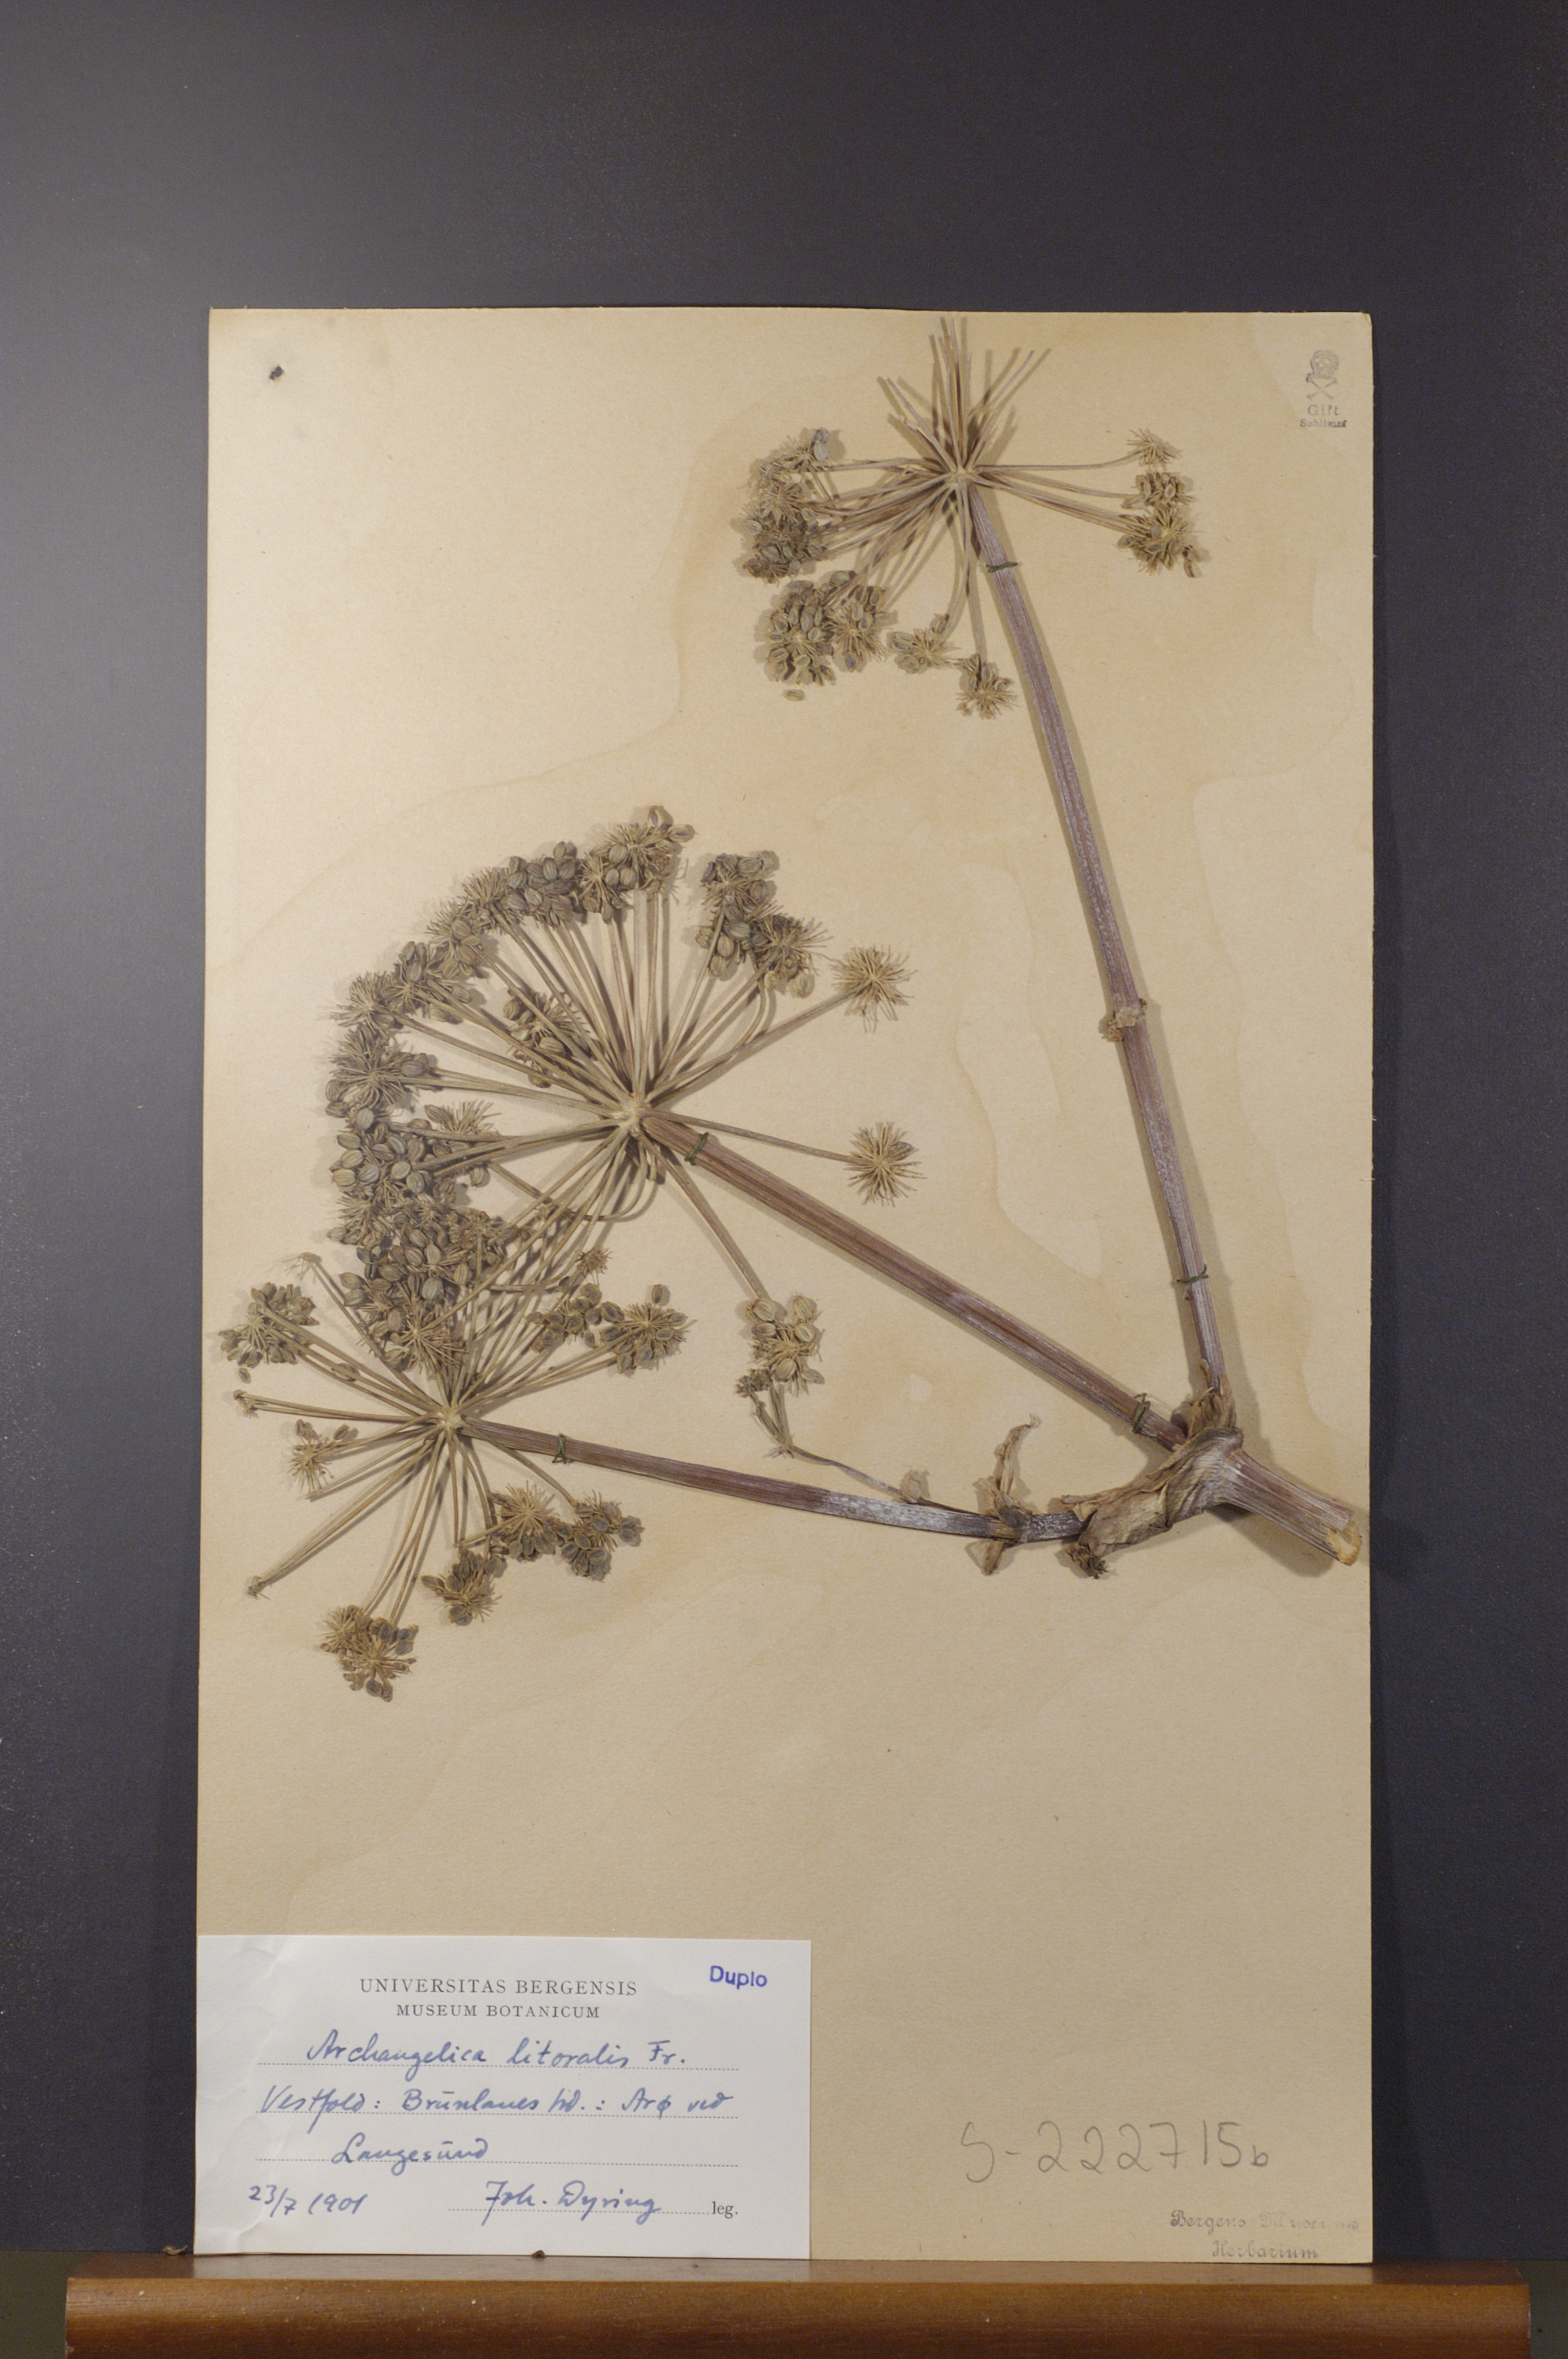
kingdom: Plantae
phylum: Tracheophyta
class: Magnoliopsida
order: Apiales
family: Apiaceae
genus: Angelica
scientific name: Angelica archangelica
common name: Garden angelica
